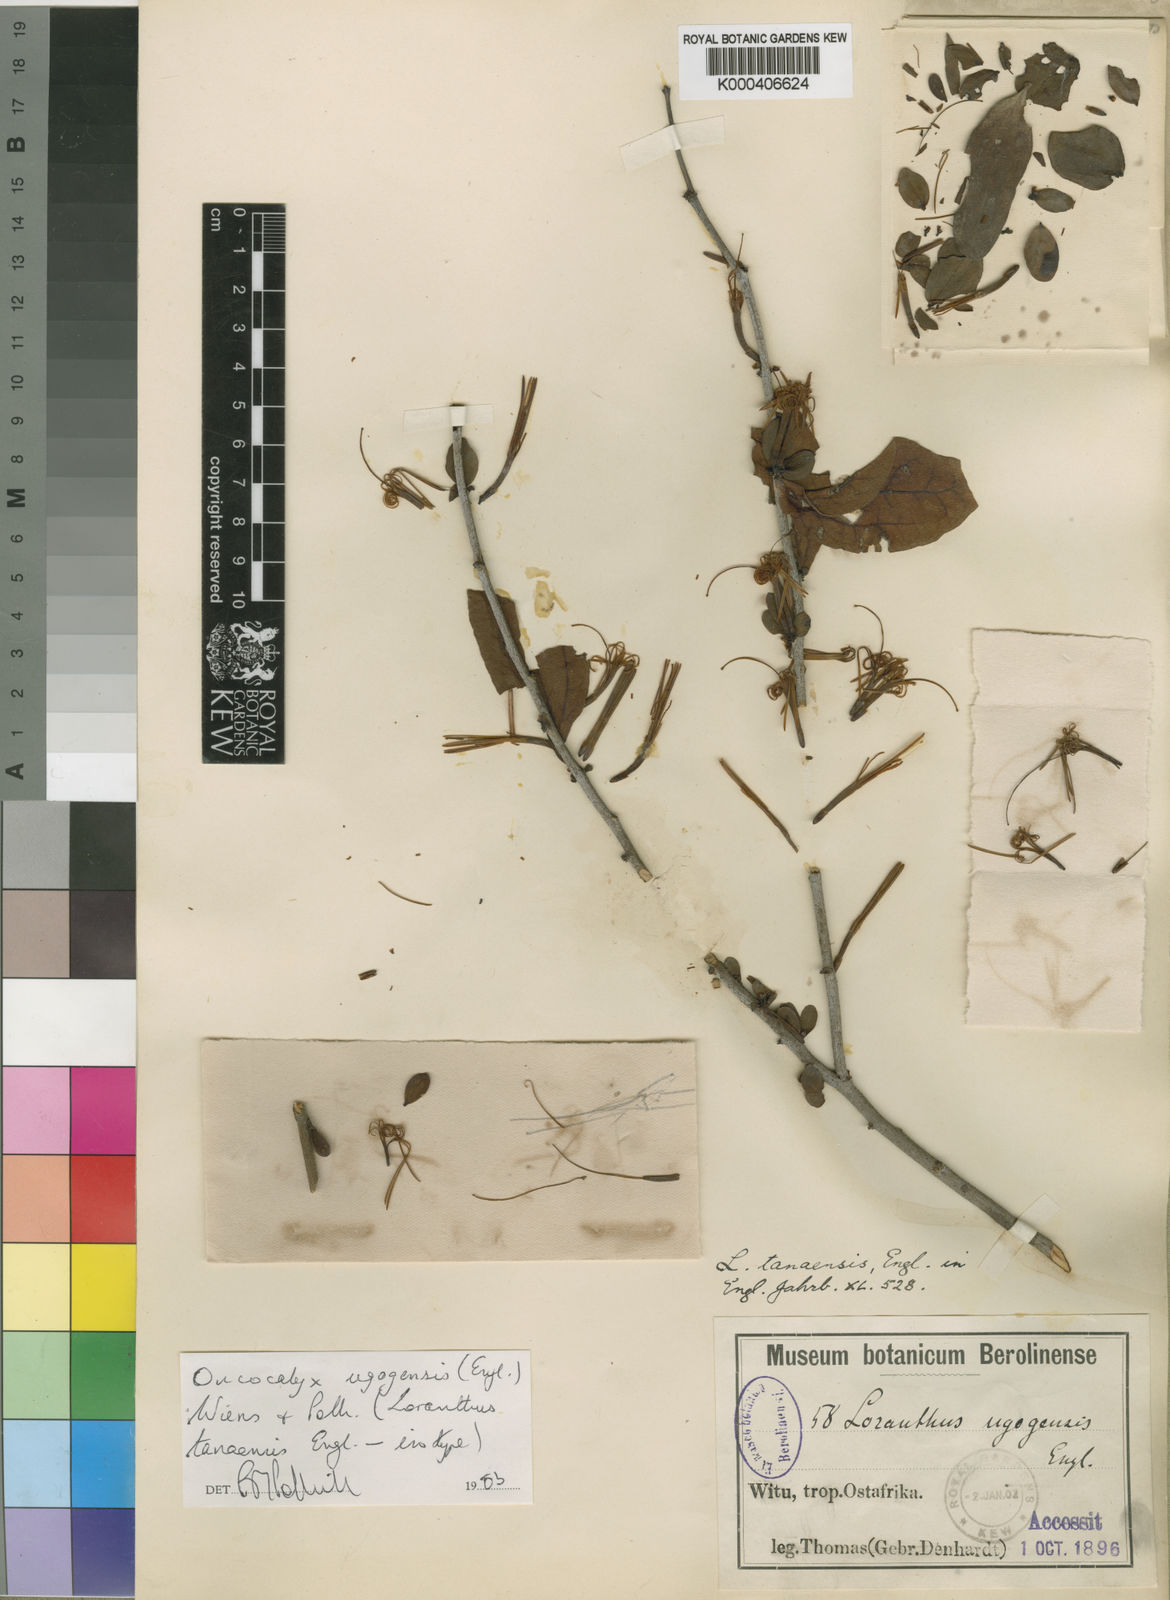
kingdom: Plantae
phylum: Tracheophyta
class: Magnoliopsida
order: Santalales
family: Loranthaceae
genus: Oncocalyx
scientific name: Oncocalyx ugogensis
